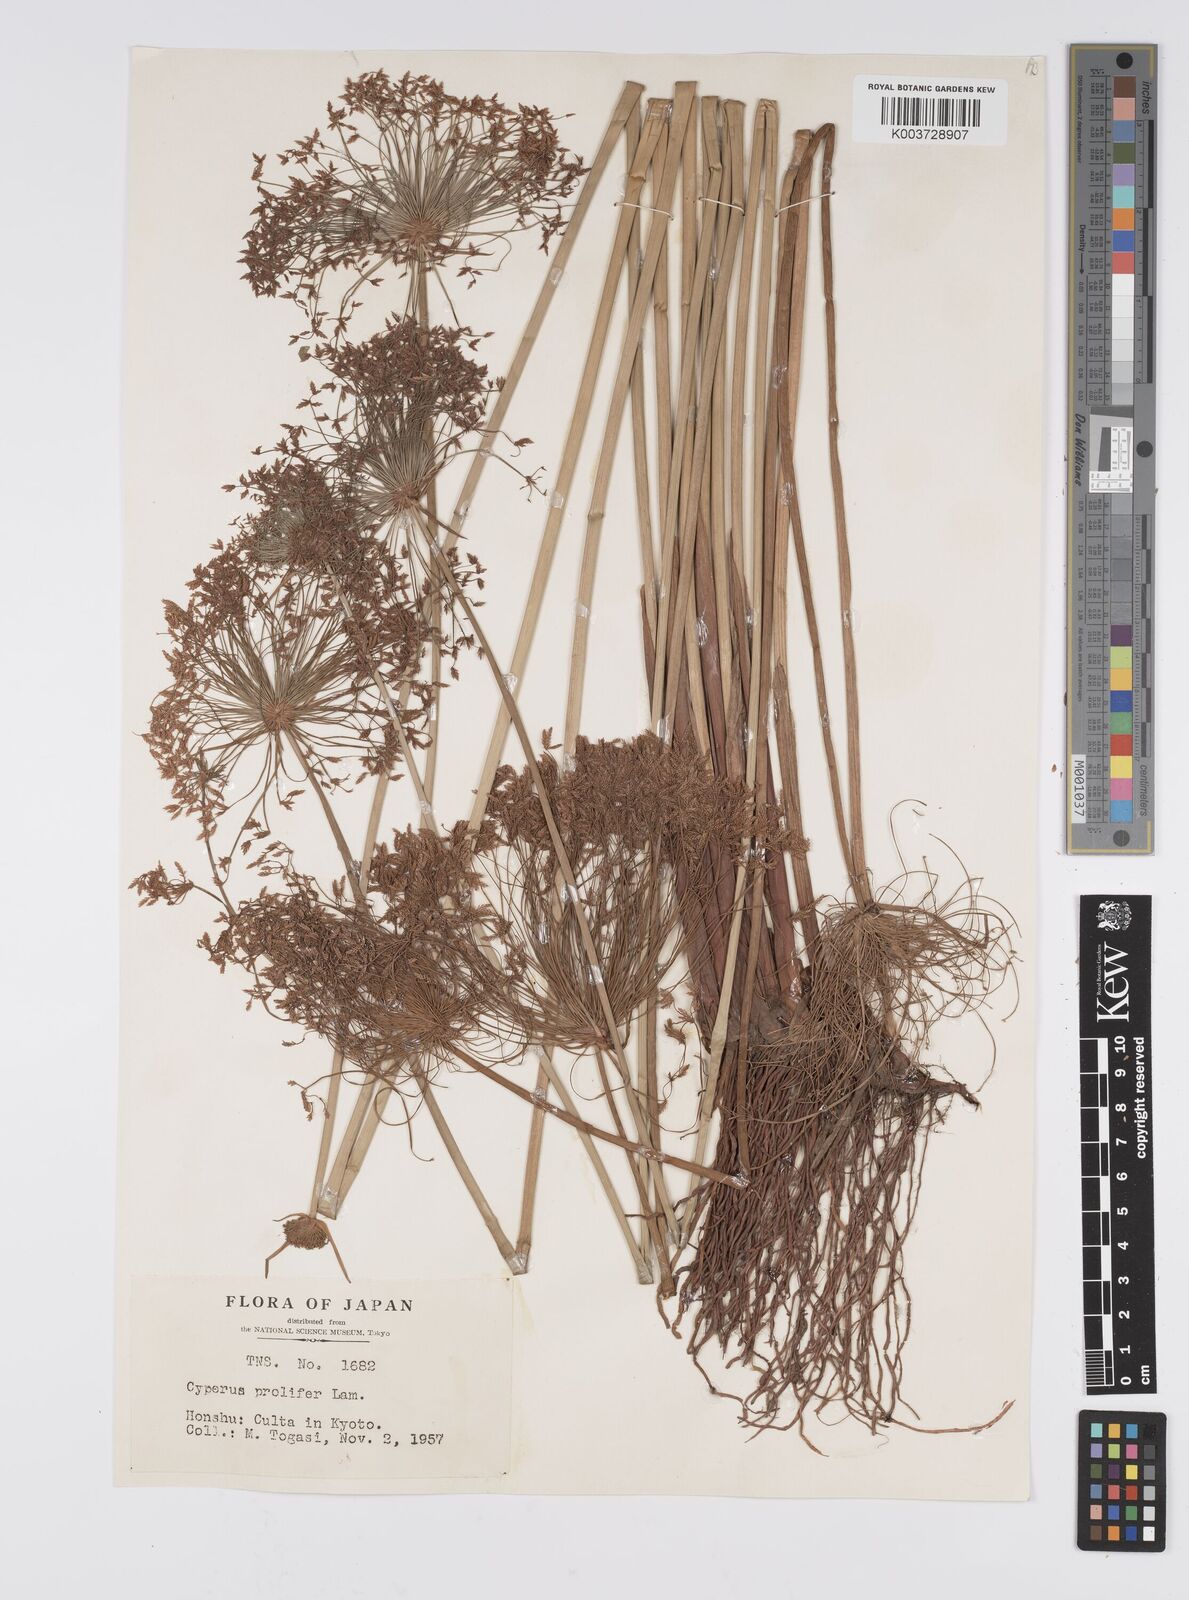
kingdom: Plantae
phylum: Tracheophyta
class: Liliopsida
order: Poales
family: Cyperaceae
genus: Cyperus
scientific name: Cyperus prolifer
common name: Miniature flatsedge
